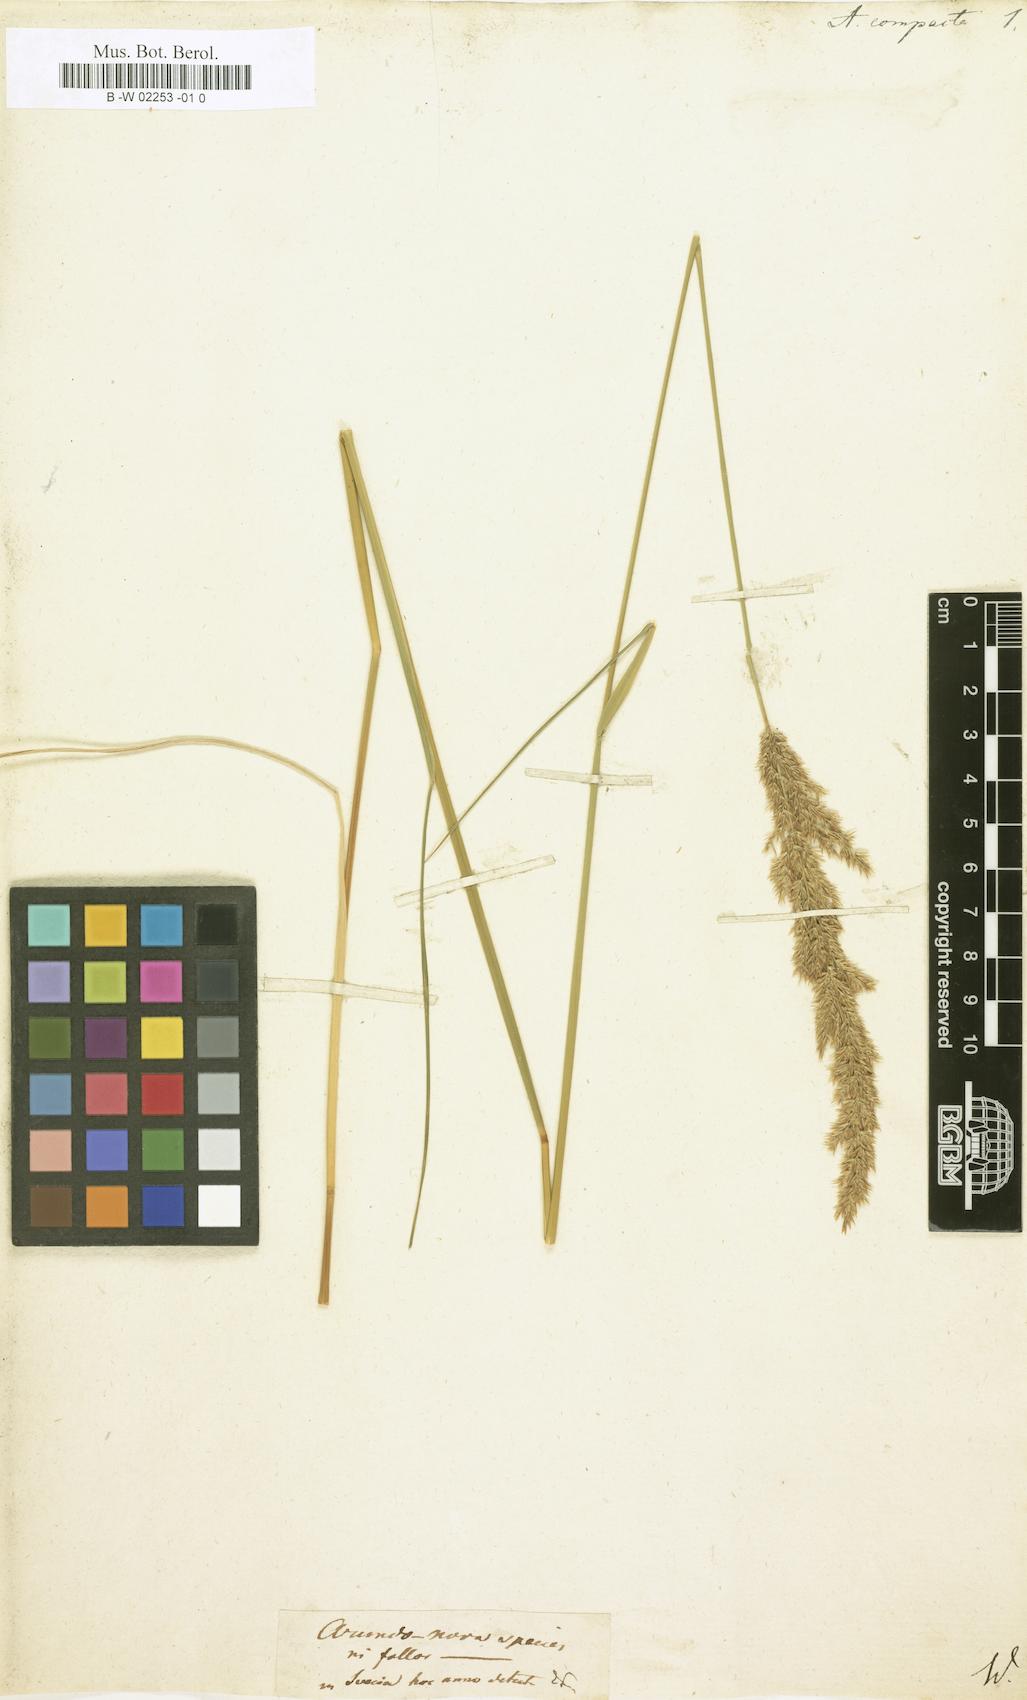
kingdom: Plantae
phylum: Tracheophyta
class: Liliopsida
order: Poales
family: Poaceae
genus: Arundo
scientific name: Arundo
